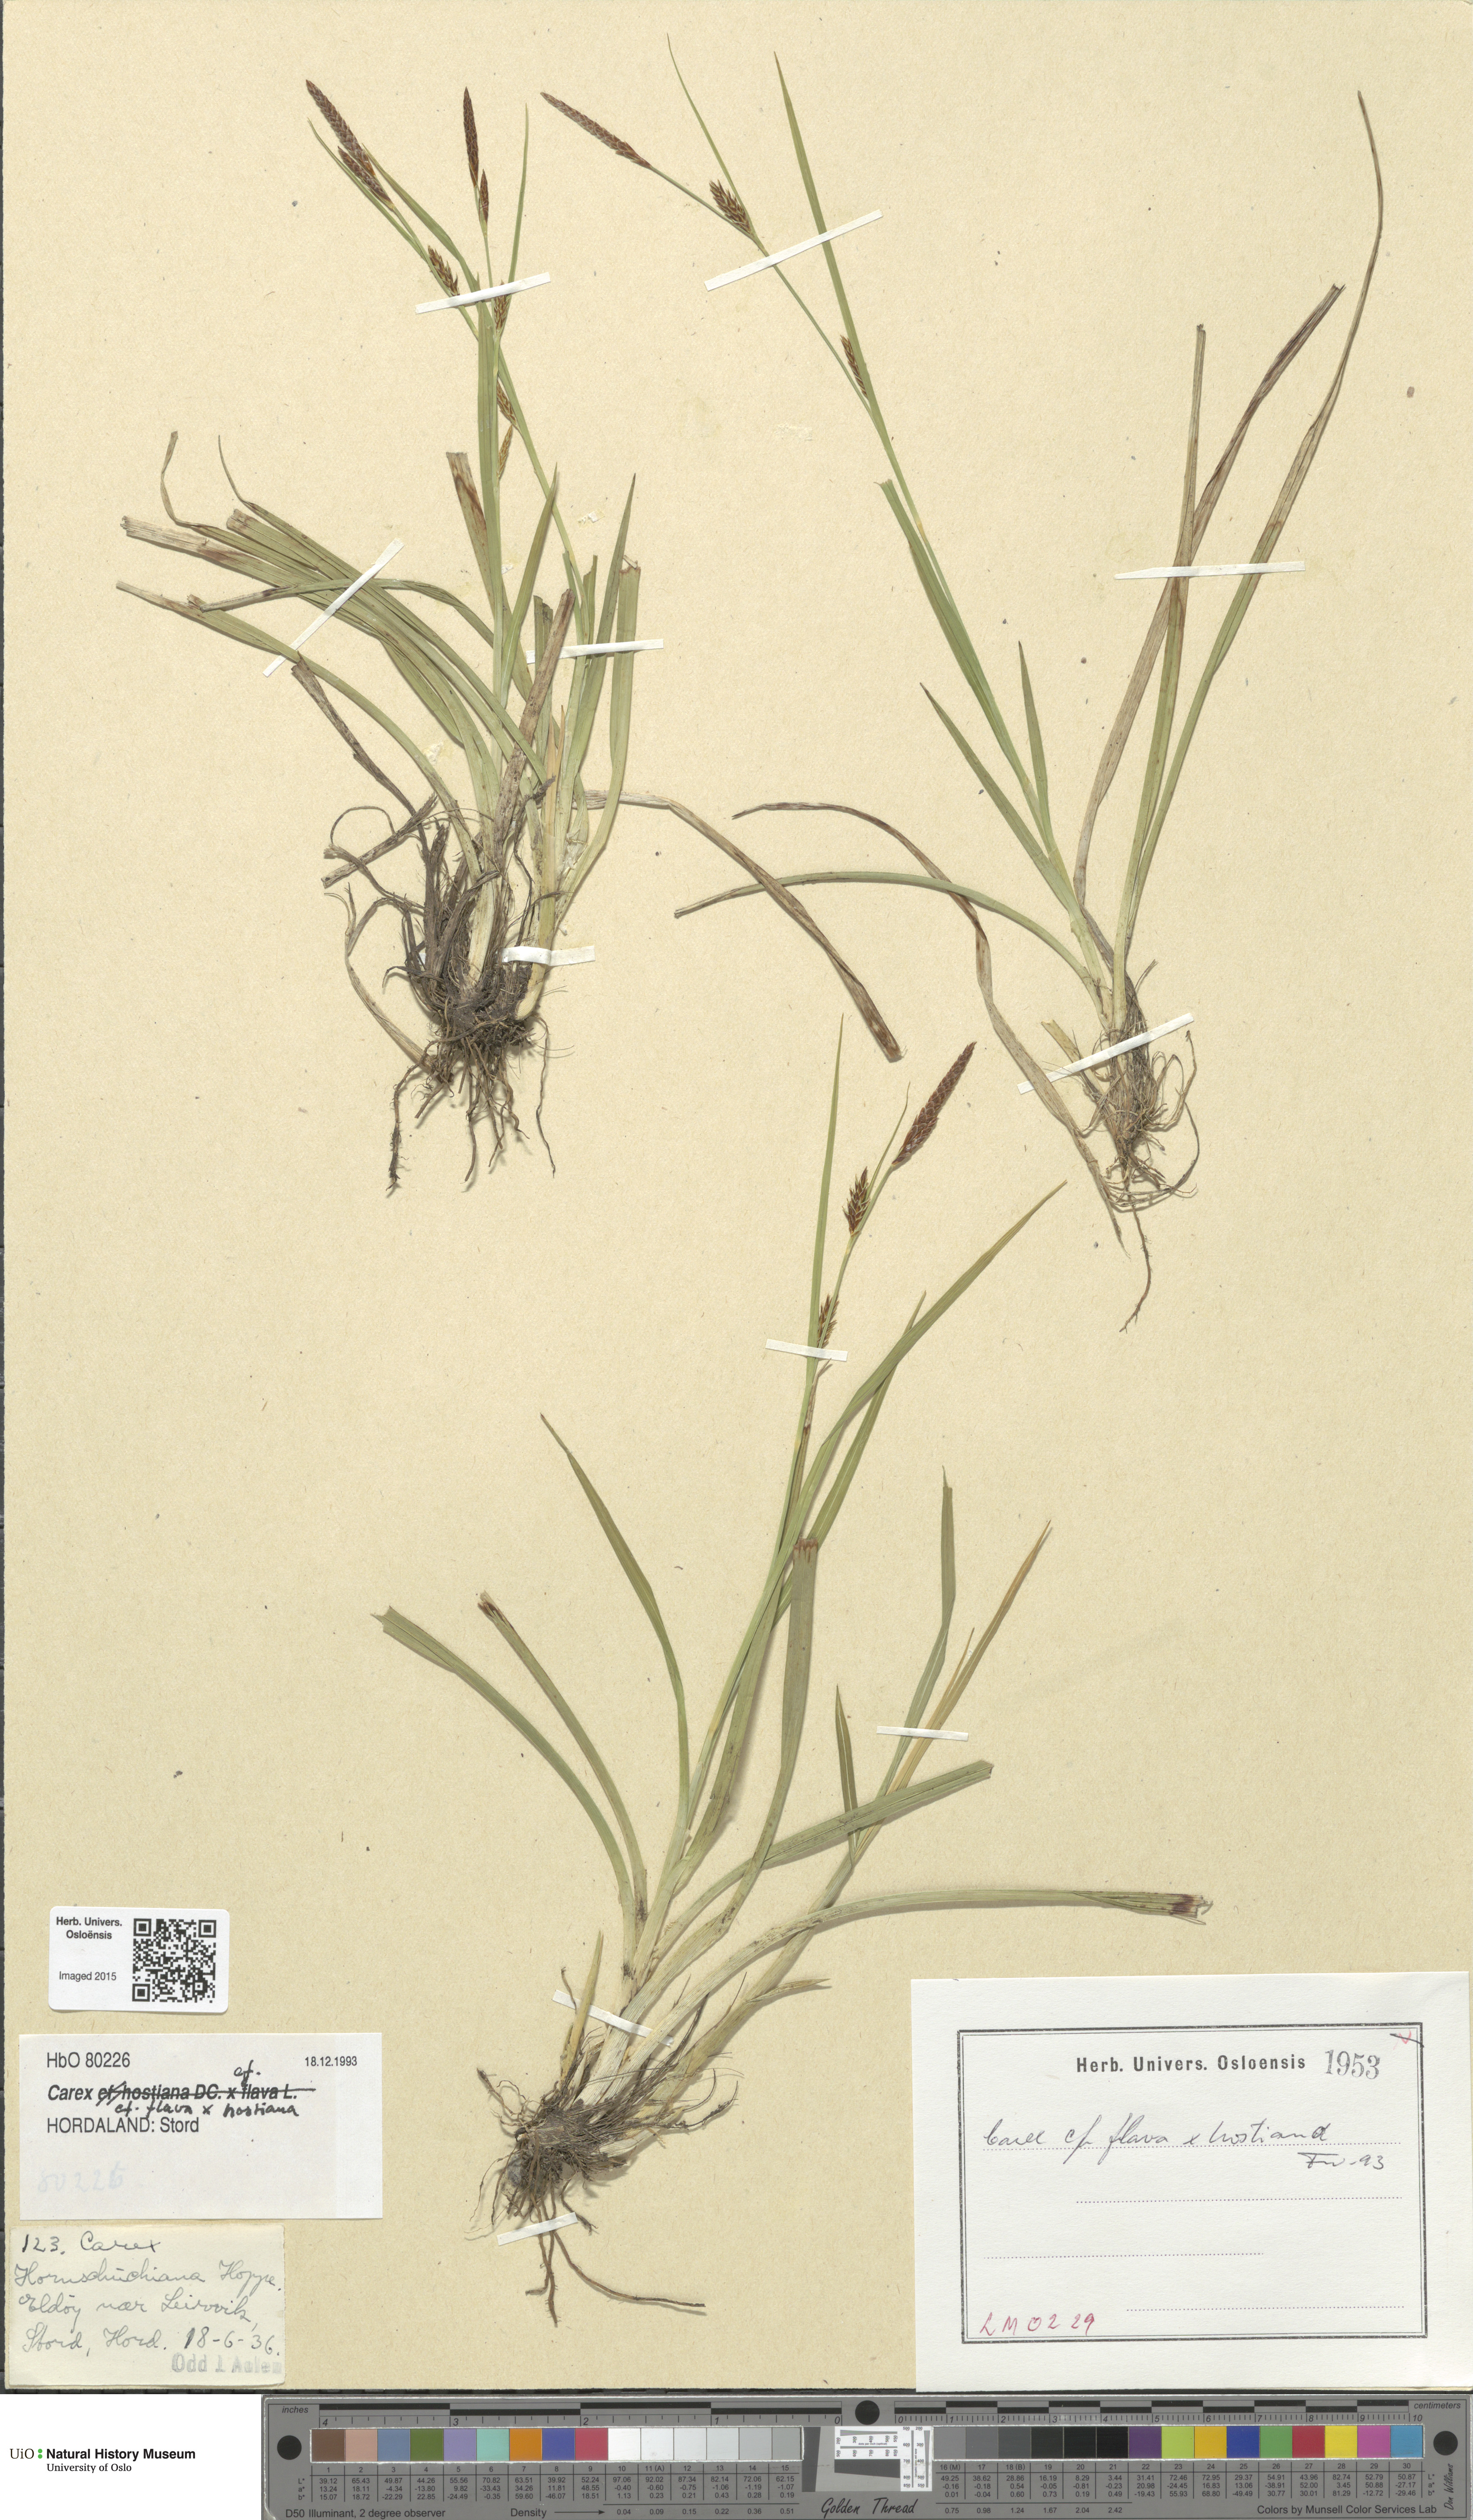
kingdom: Plantae
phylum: Tracheophyta
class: Liliopsida
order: Poales
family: Cyperaceae
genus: Carex
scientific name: Carex
